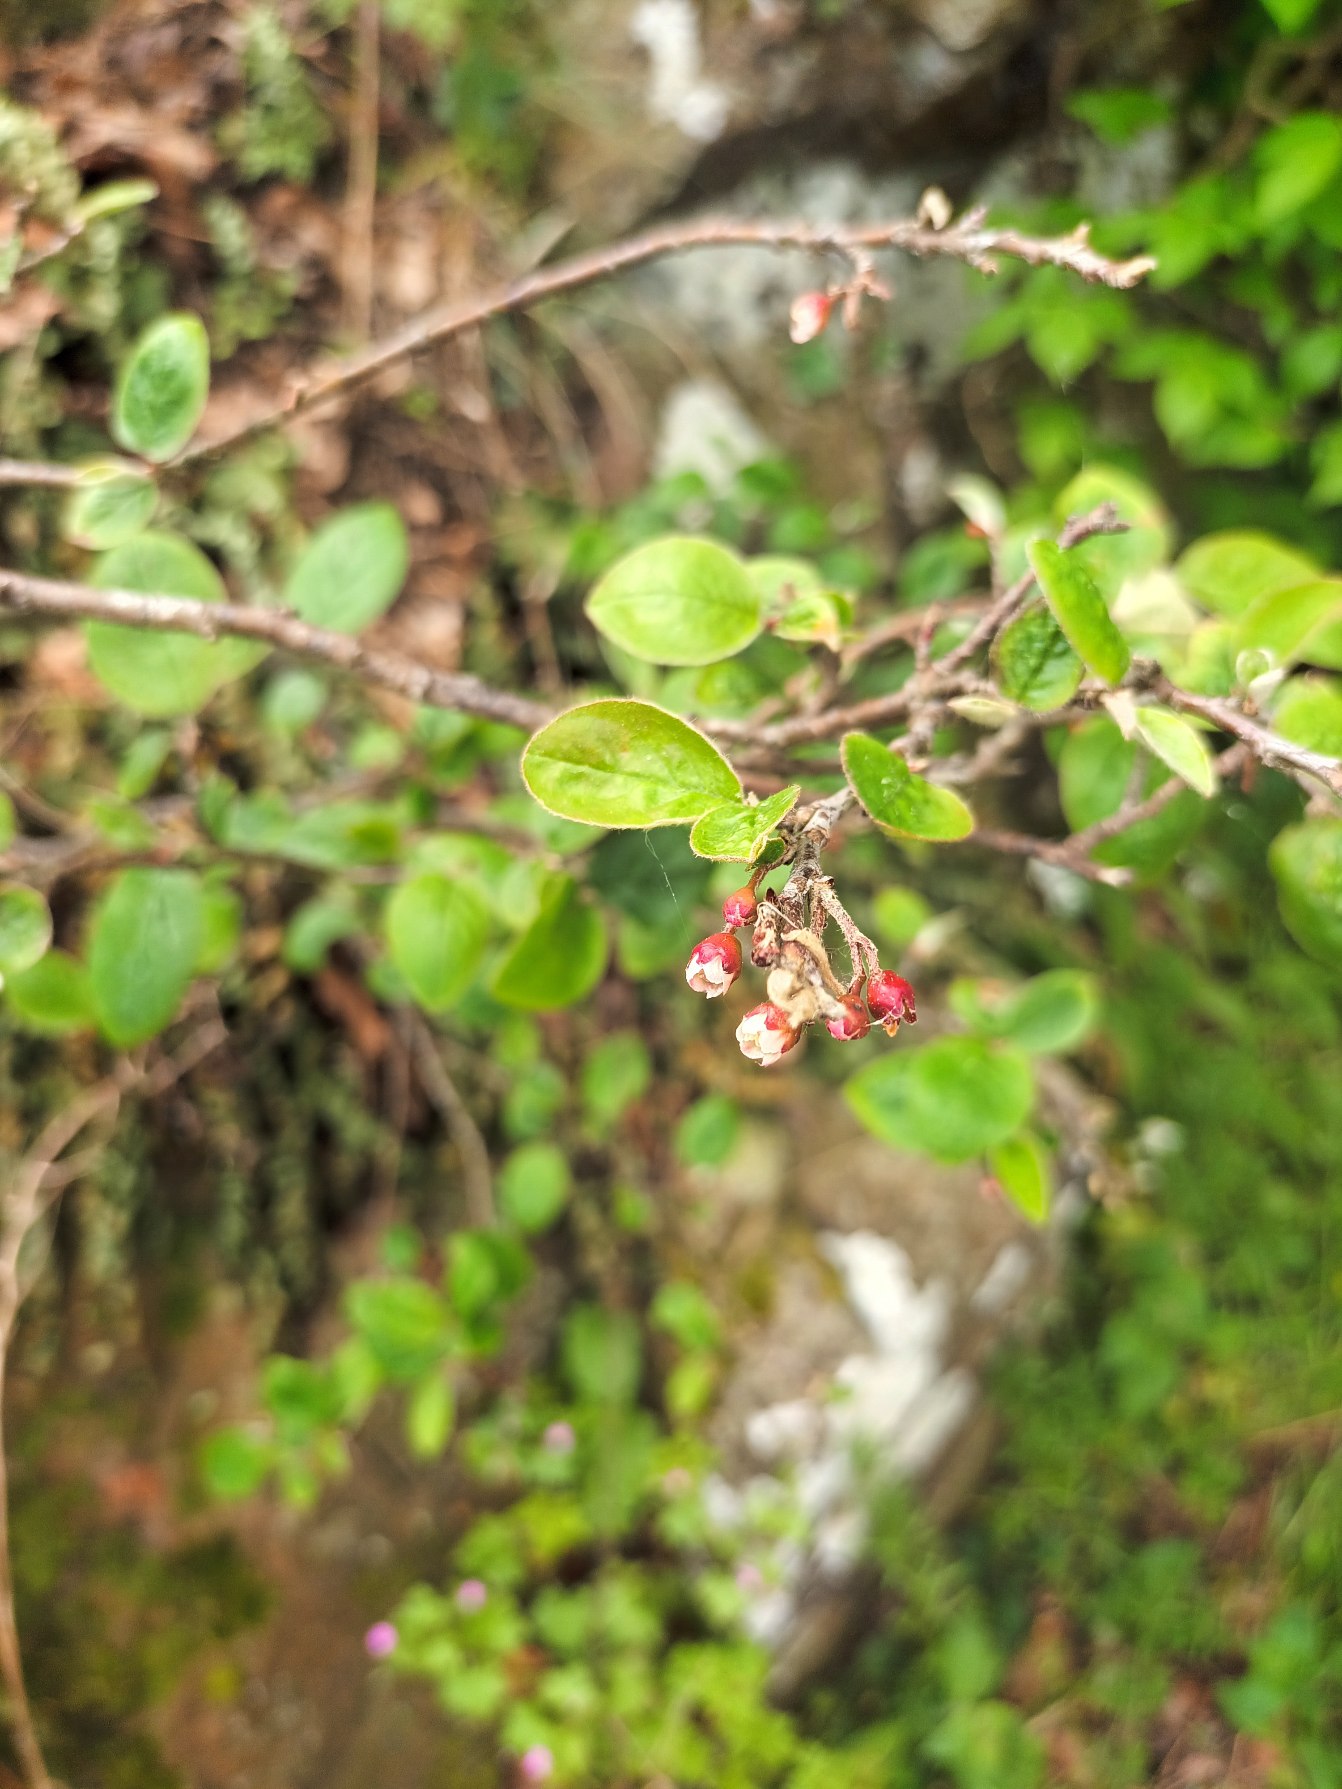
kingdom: Plantae
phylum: Tracheophyta
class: Magnoliopsida
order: Rosales
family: Rosaceae
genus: Cotoneaster
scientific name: Cotoneaster integerrimus
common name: Rød dværgmispel
